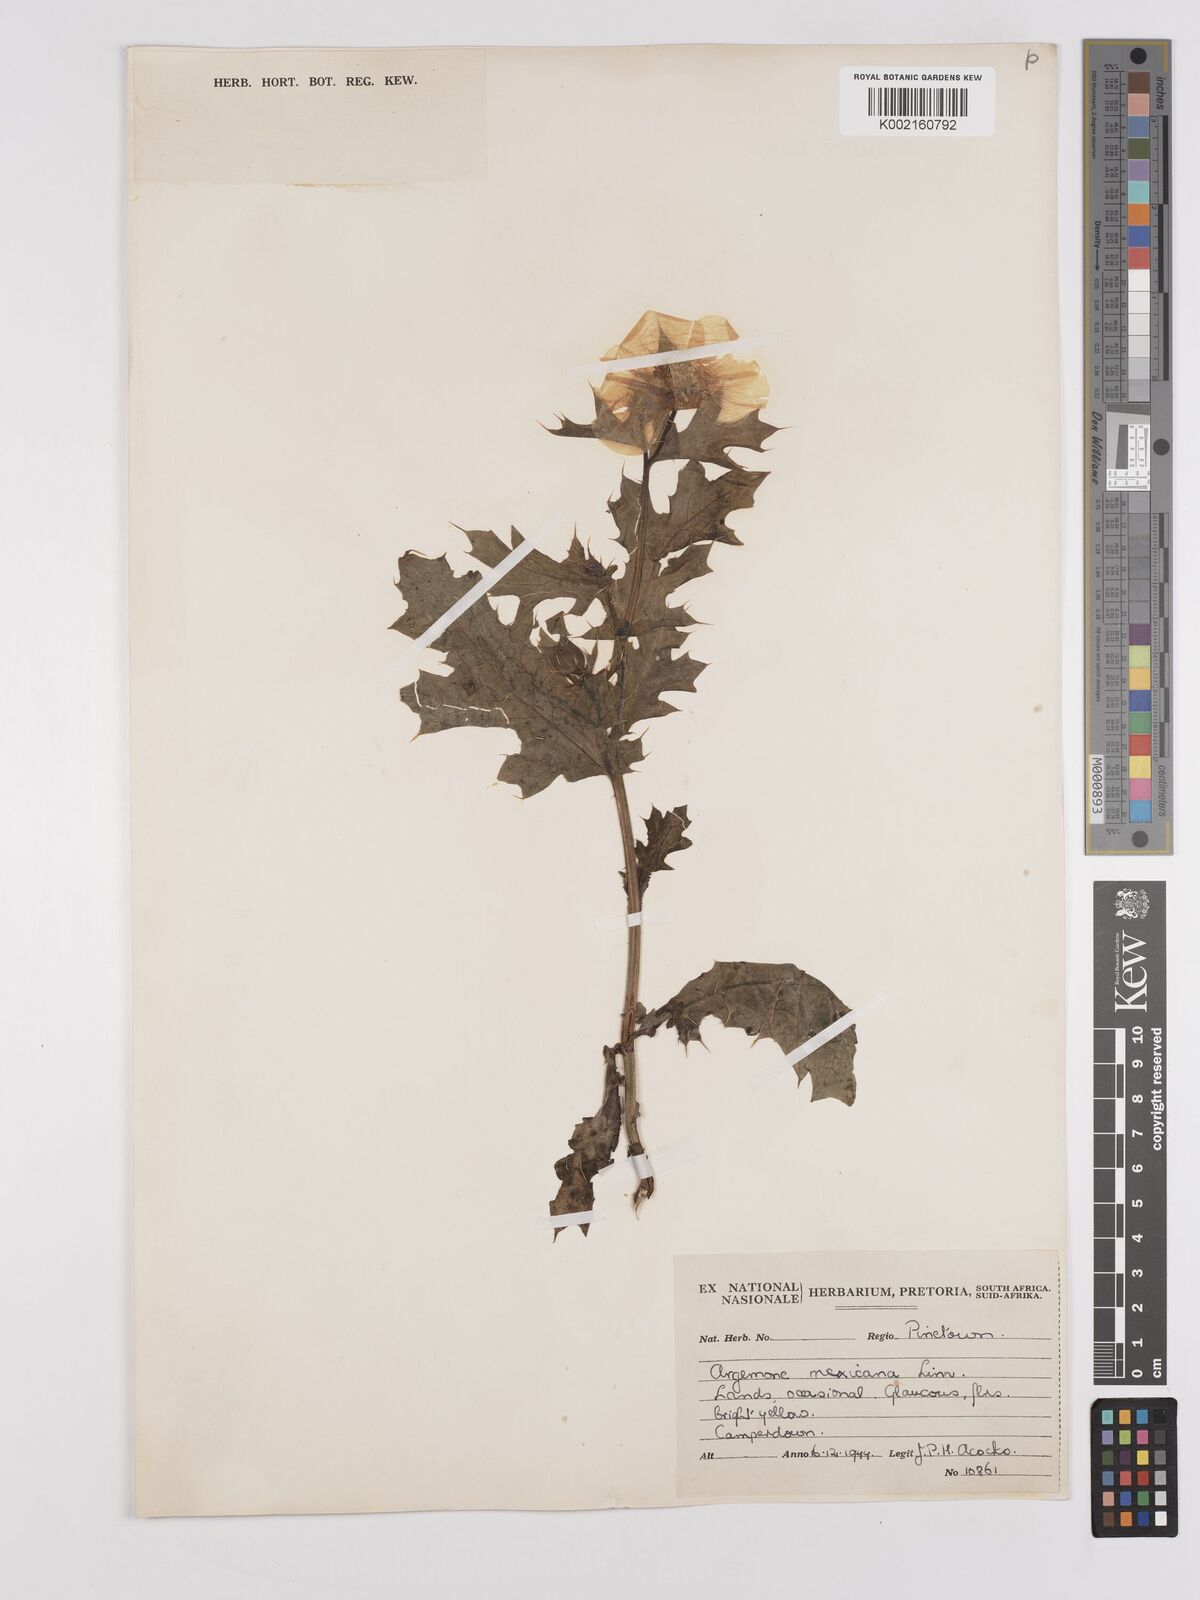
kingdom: Plantae
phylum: Tracheophyta
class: Magnoliopsida
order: Ranunculales
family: Papaveraceae
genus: Argemone
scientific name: Argemone subfusiformis
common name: American-poppy
